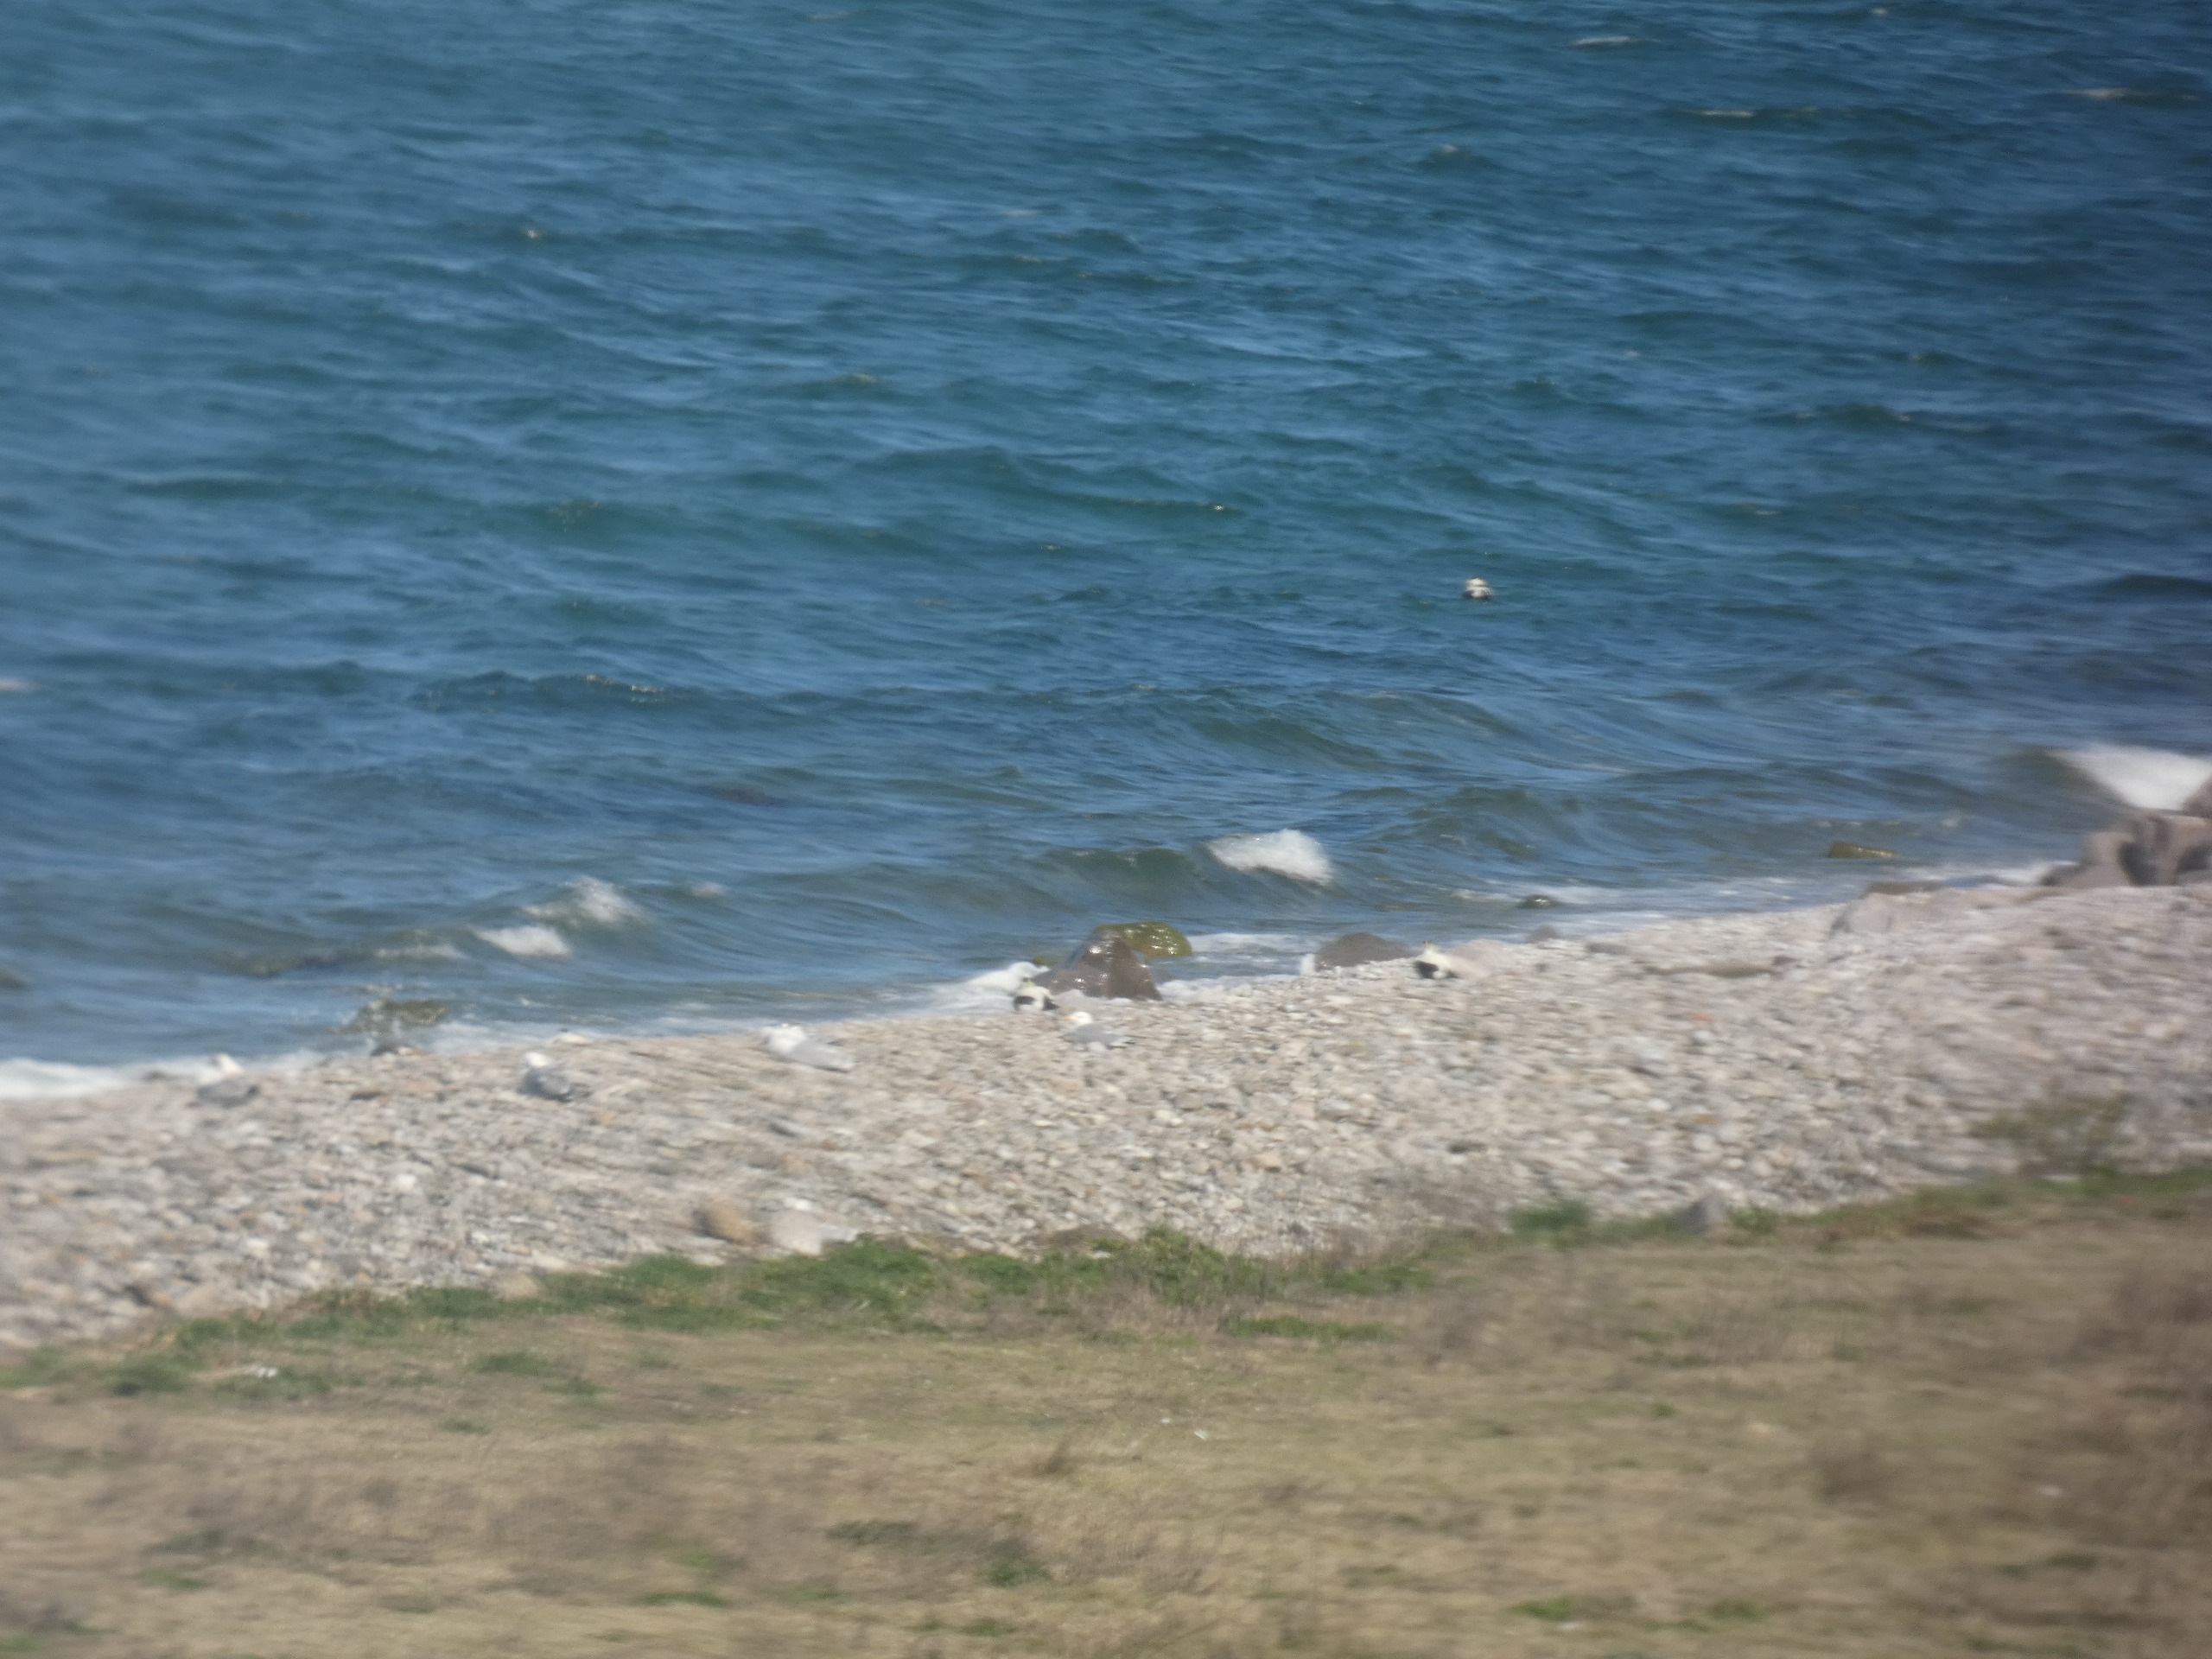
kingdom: Animalia
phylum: Chordata
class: Aves
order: Anseriformes
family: Anatidae
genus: Somateria
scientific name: Somateria mollissima
